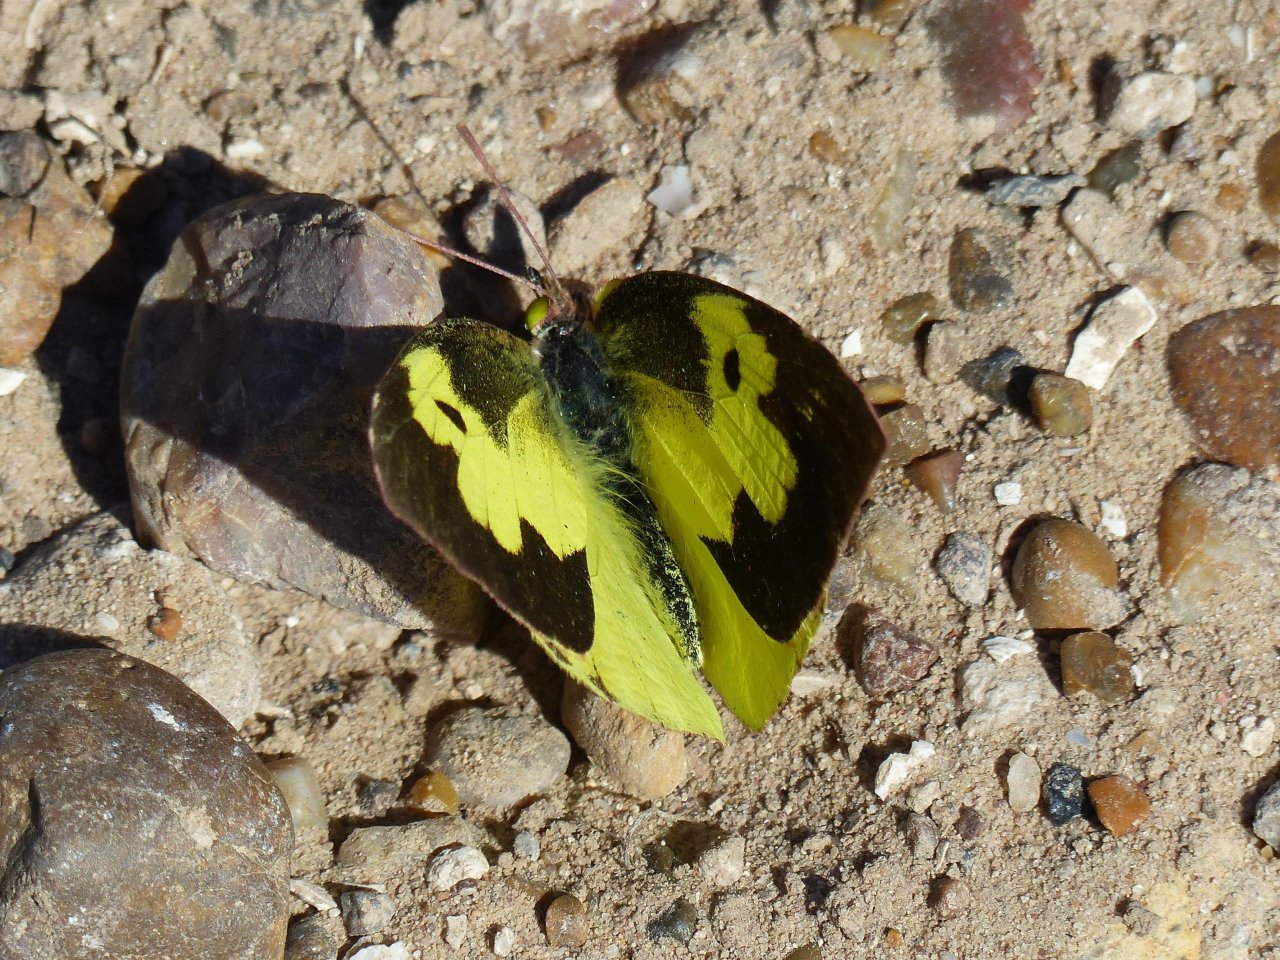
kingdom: Animalia
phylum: Arthropoda
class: Insecta
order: Lepidoptera
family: Pieridae
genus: Zerene
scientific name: Zerene cesonia
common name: Southern Dogface
